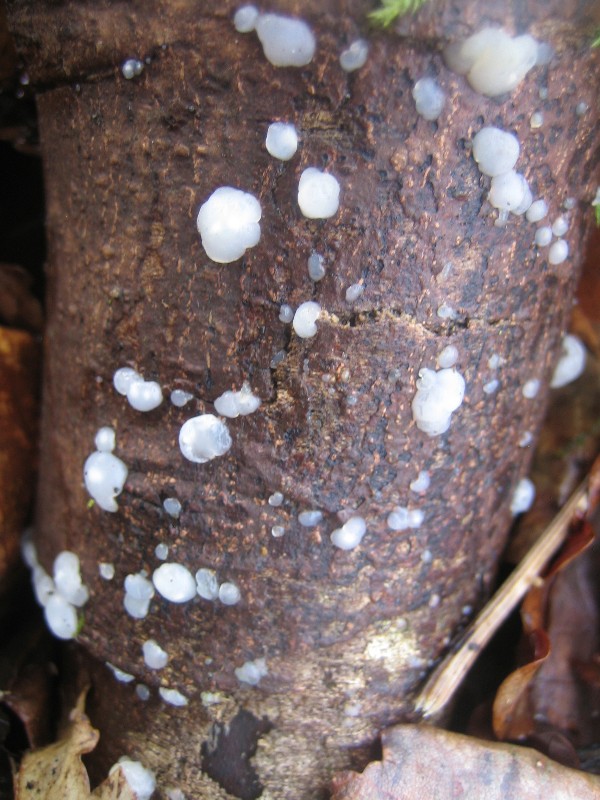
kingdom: Fungi
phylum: Basidiomycota
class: Agaricomycetes
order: Auriculariales
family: Hyaloriaceae
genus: Myxarium
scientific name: Myxarium nucleatum
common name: klar bævretop
